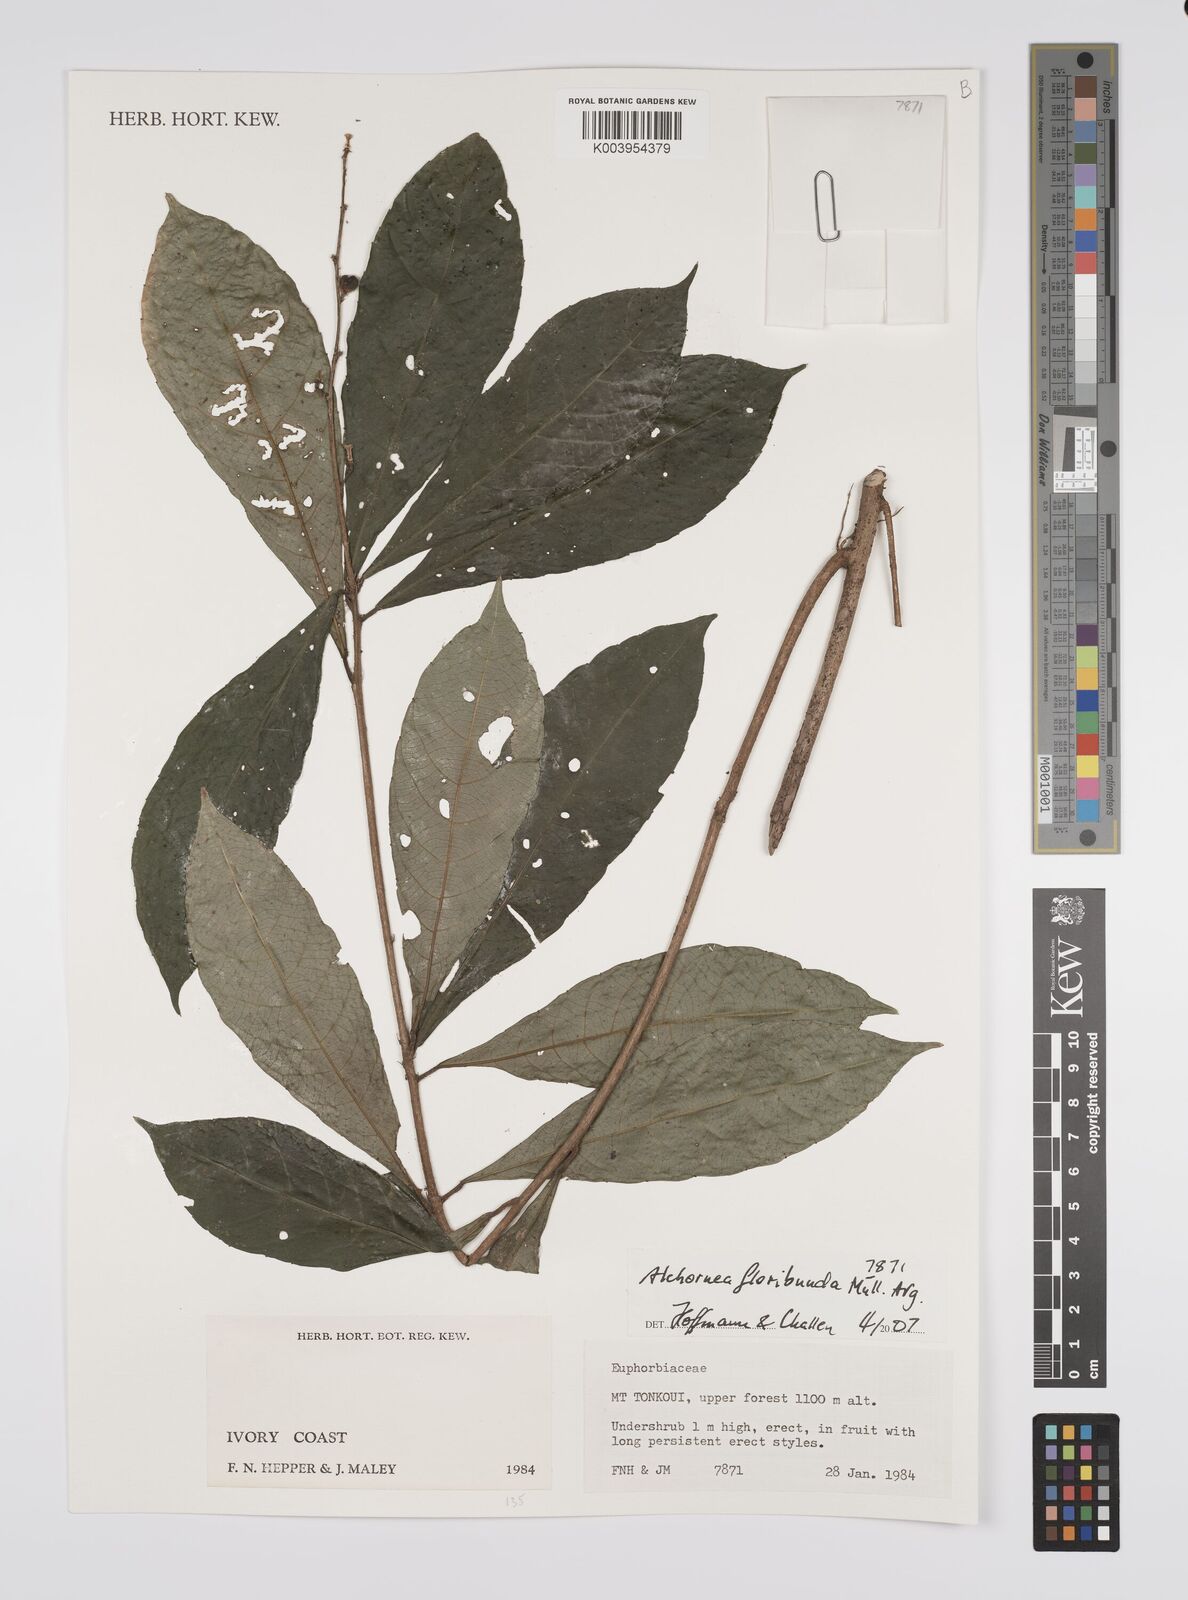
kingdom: Plantae
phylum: Tracheophyta
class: Magnoliopsida
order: Malpighiales
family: Euphorbiaceae
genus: Alchornea
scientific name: Alchornea floribunda
